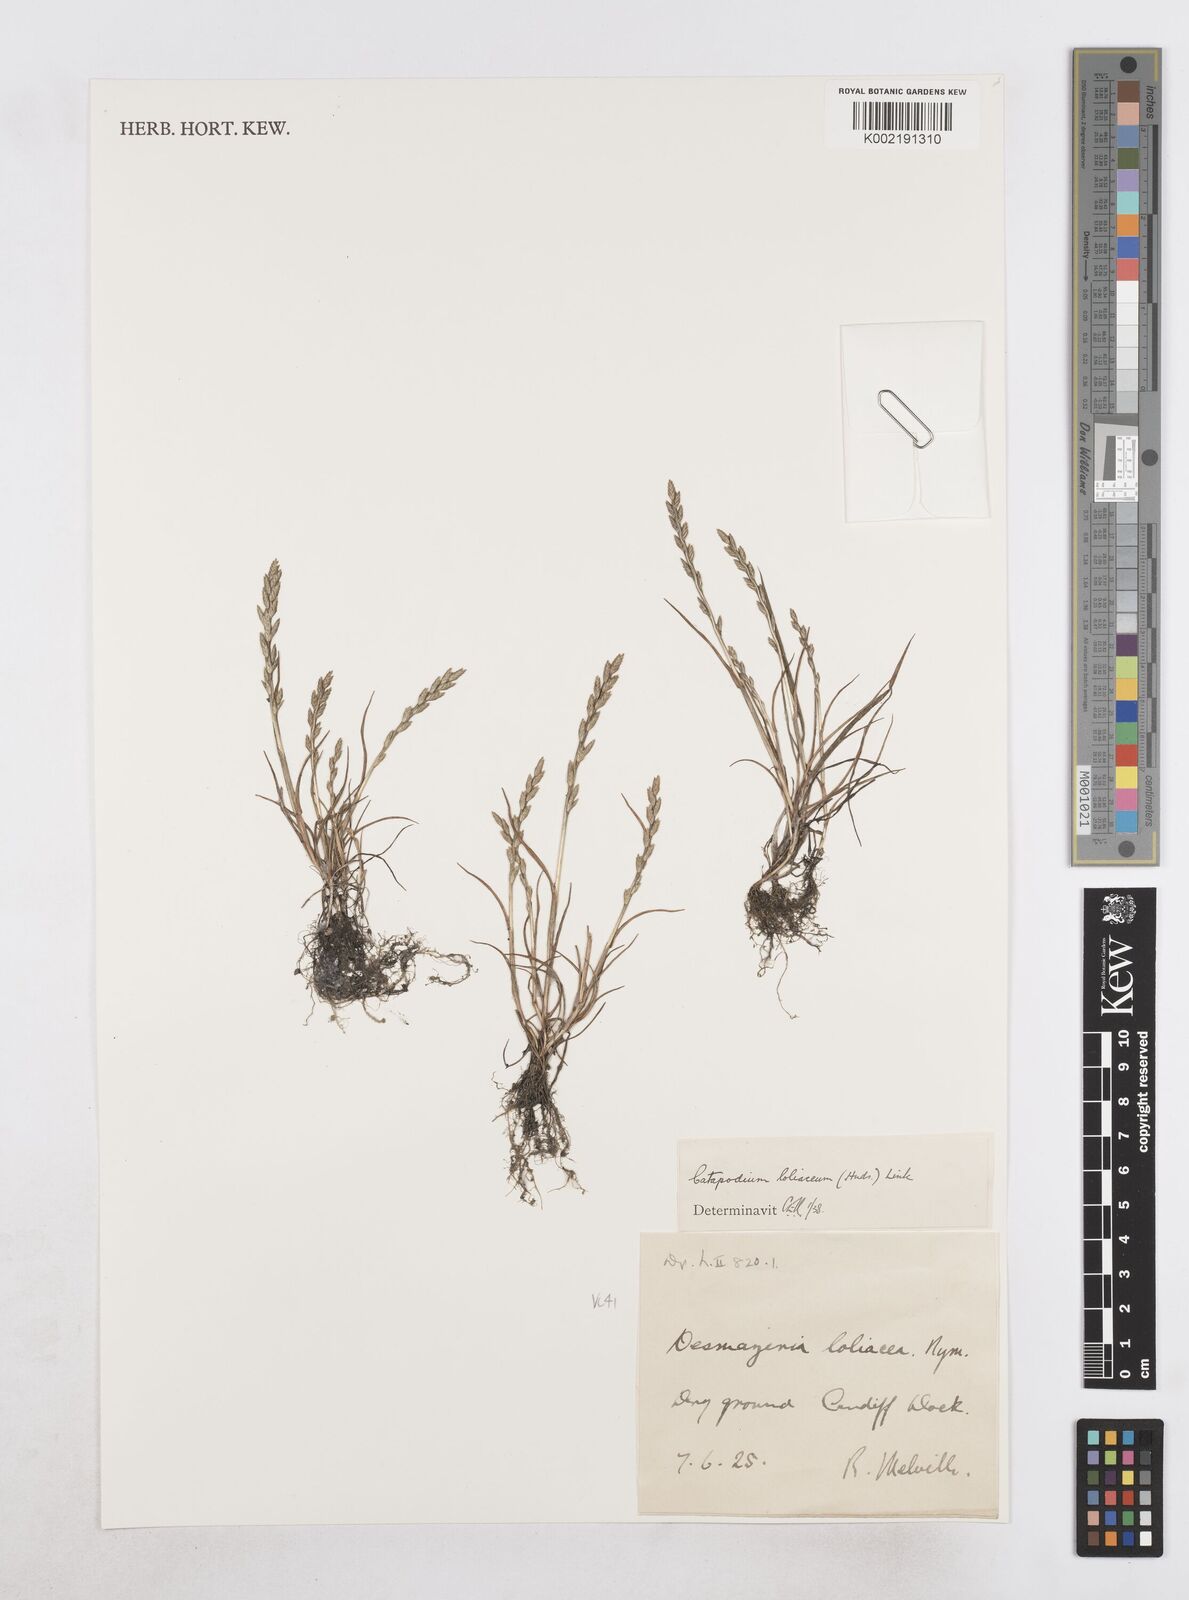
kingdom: Plantae
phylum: Tracheophyta
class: Liliopsida
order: Poales
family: Poaceae
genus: Catapodium
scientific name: Catapodium rigidum
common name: Fern-grass
